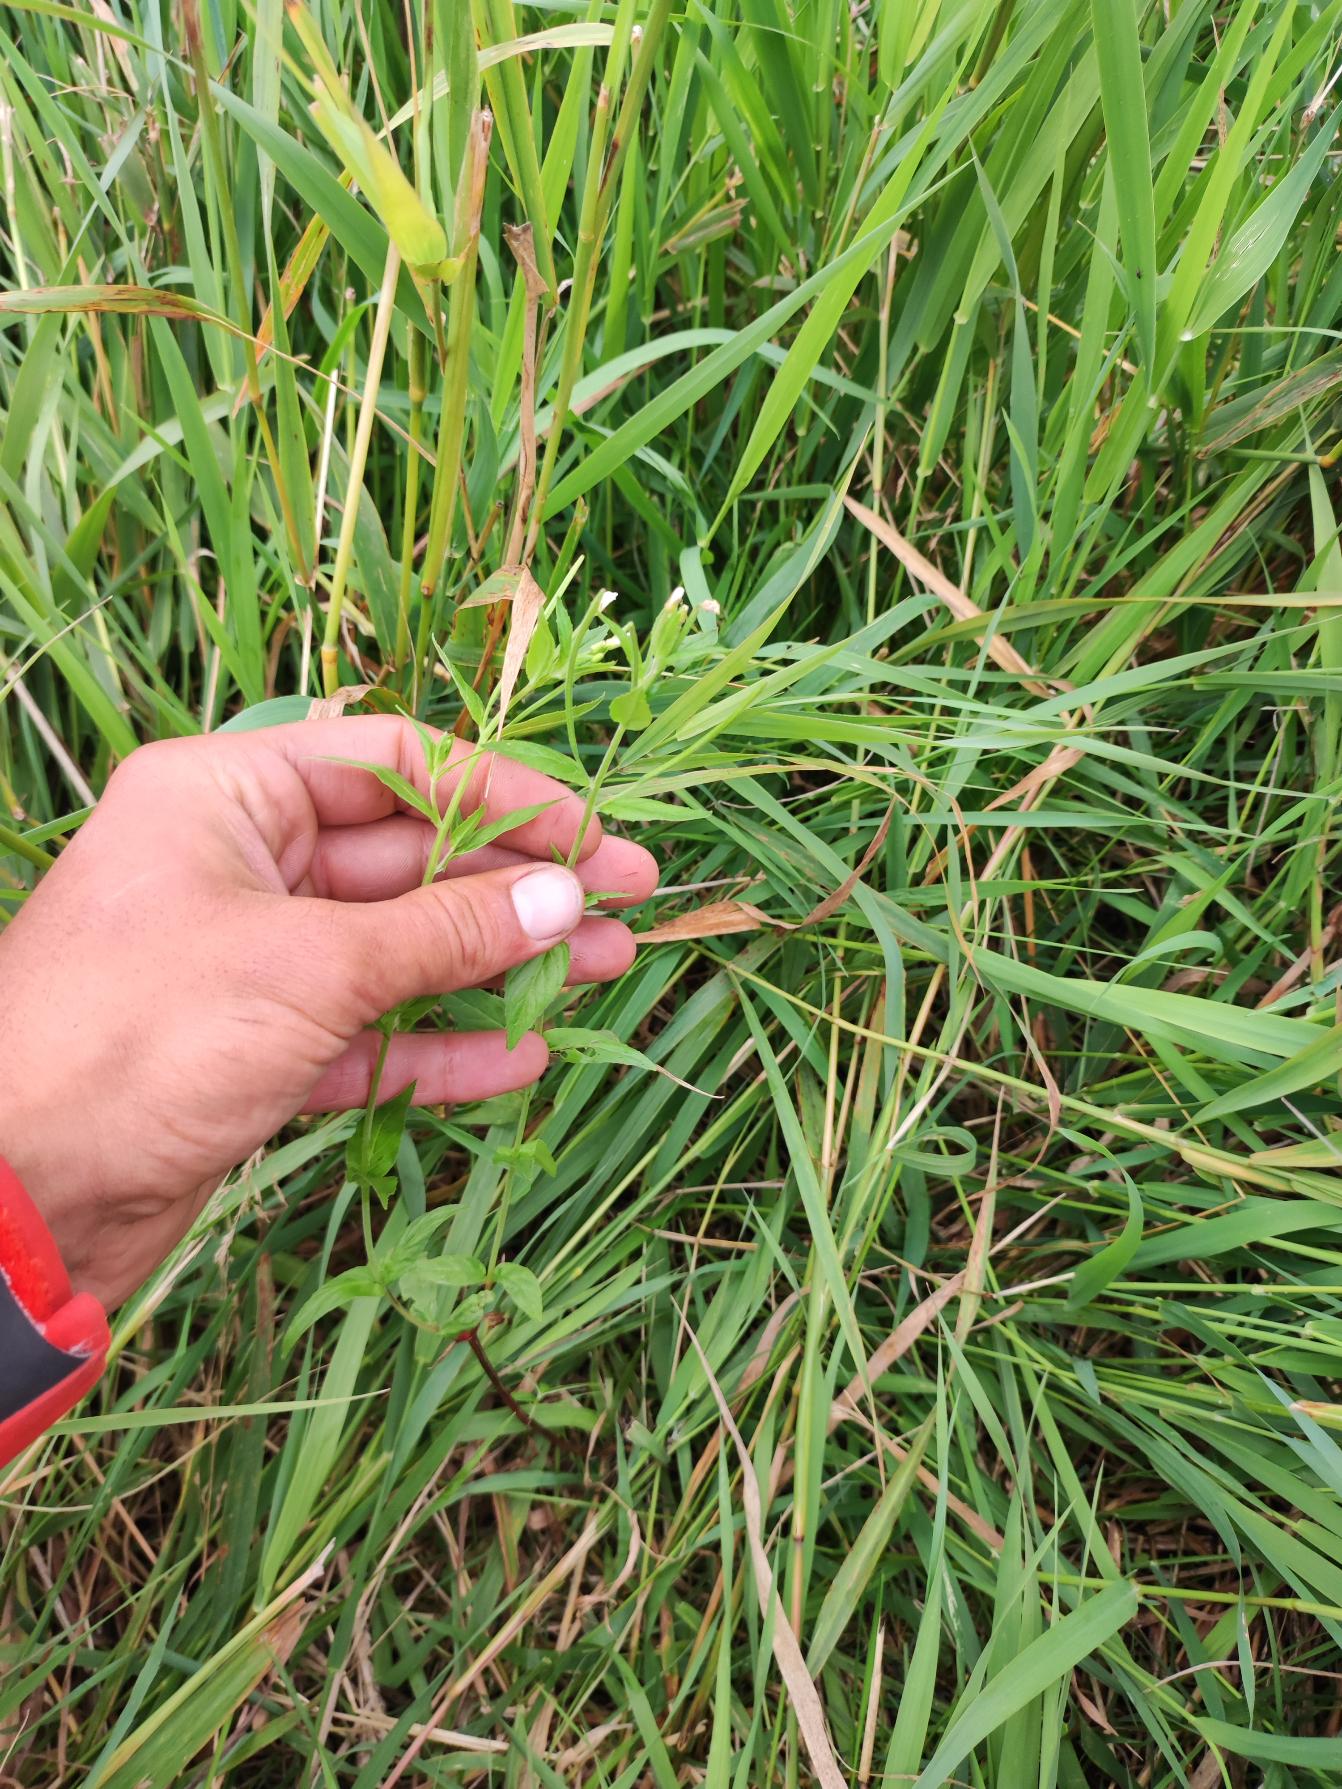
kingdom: Plantae
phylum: Tracheophyta
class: Magnoliopsida
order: Myrtales
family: Onagraceae
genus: Epilobium
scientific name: Epilobium ciliatum
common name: Hvid dueurt
